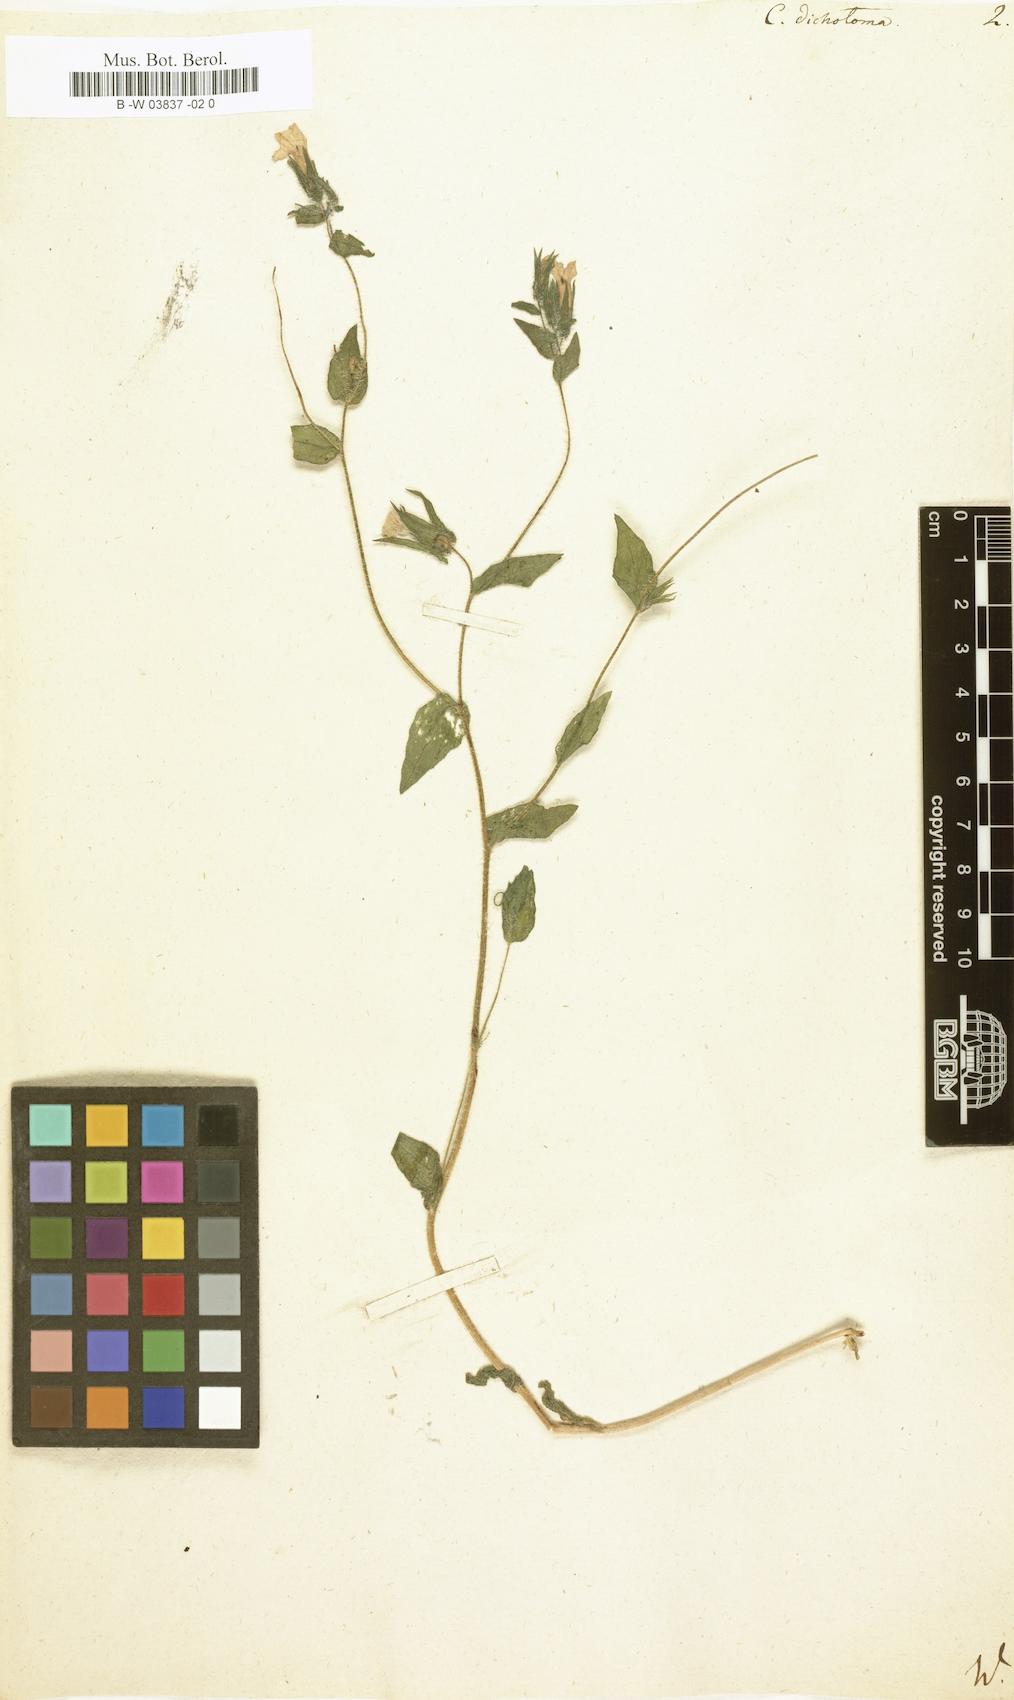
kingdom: Plantae
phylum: Tracheophyta
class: Magnoliopsida
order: Asterales
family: Campanulaceae
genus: Campanula
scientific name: Campanula dichotoma
